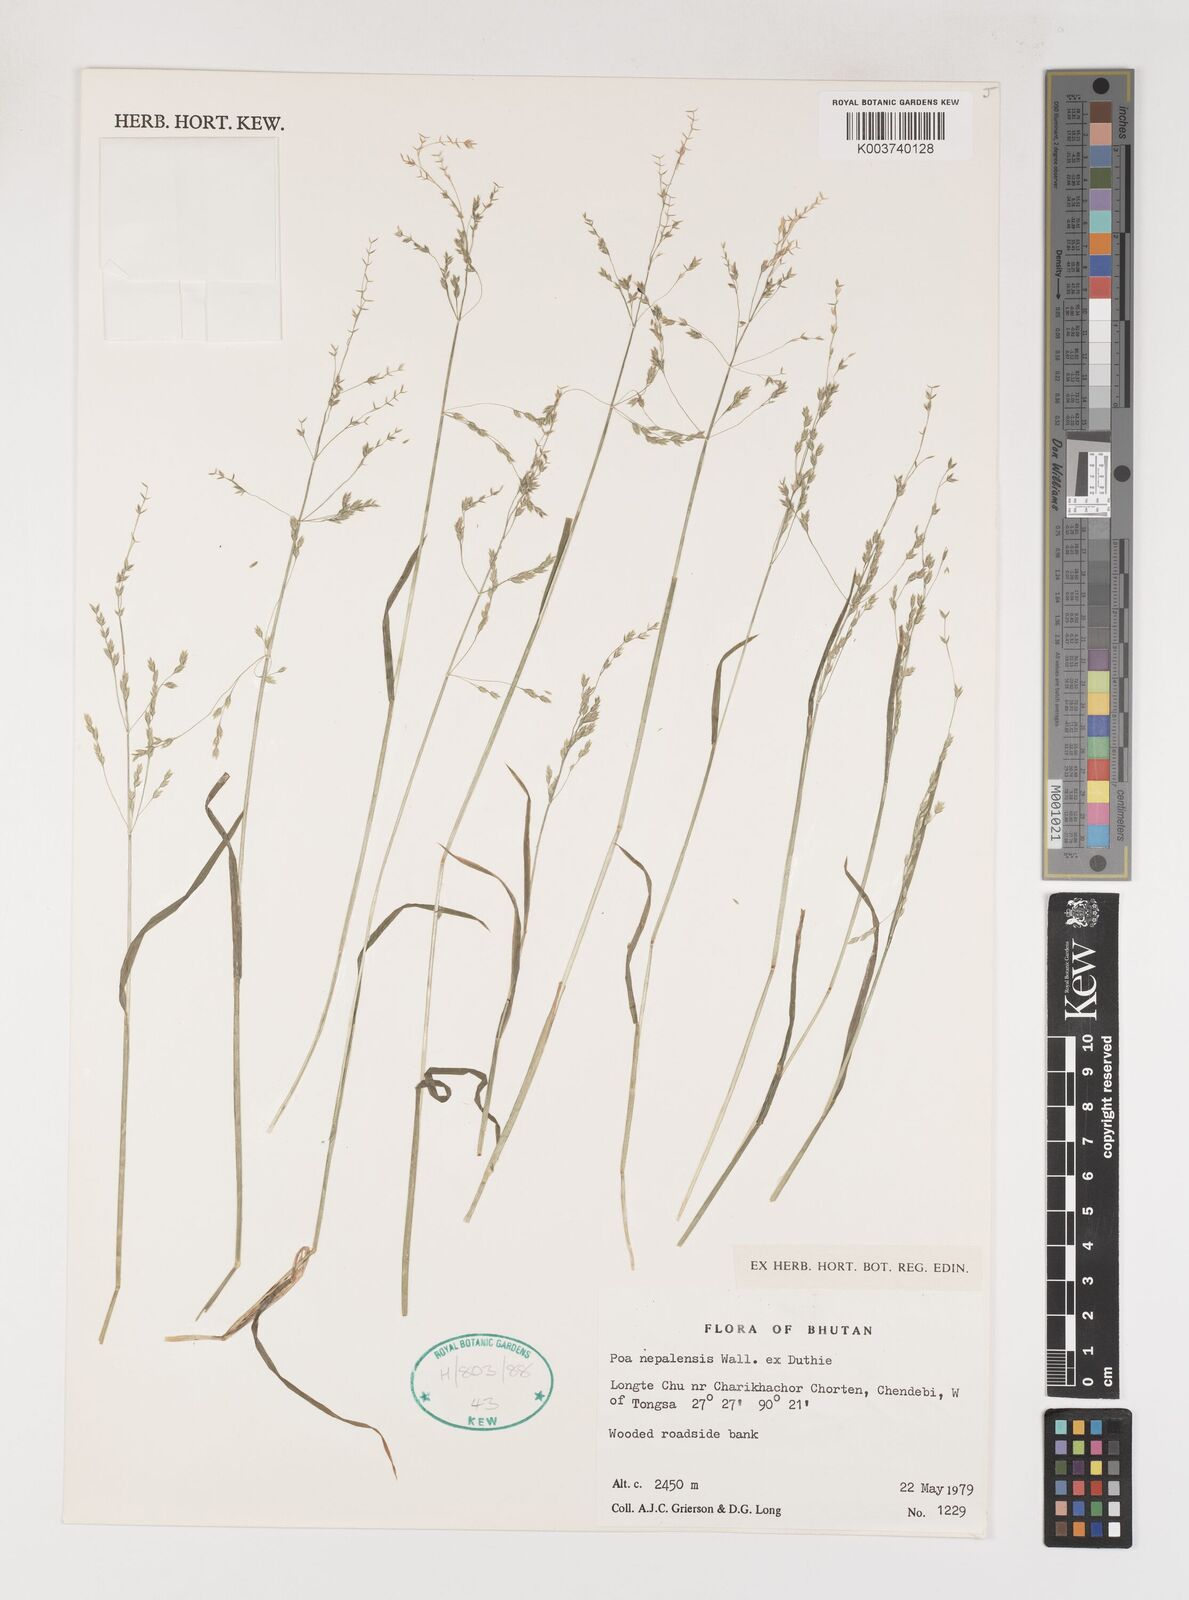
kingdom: Plantae
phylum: Tracheophyta
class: Liliopsida
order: Poales
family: Poaceae
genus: Poa
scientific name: Poa nepalensis
